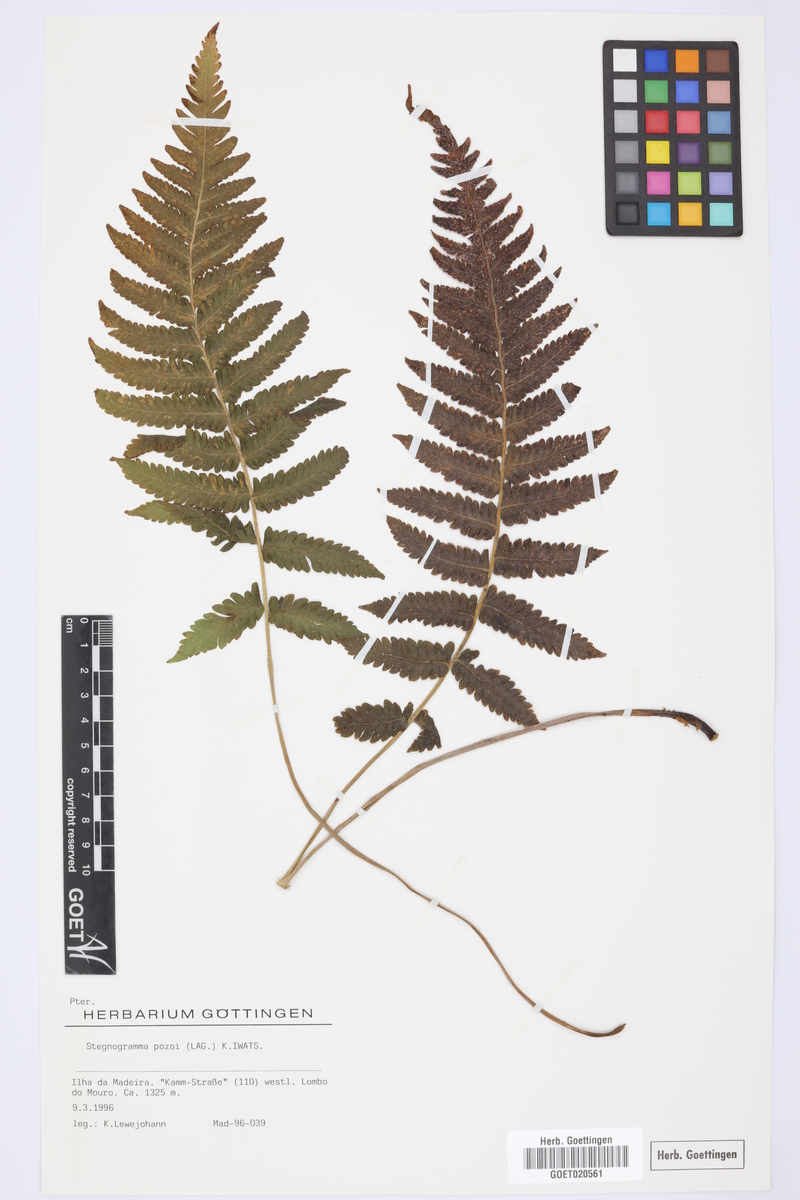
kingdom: Plantae
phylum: Tracheophyta
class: Polypodiopsida
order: Polypodiales
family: Thelypteridaceae
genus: Leptogramma
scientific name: Leptogramma pozoi
